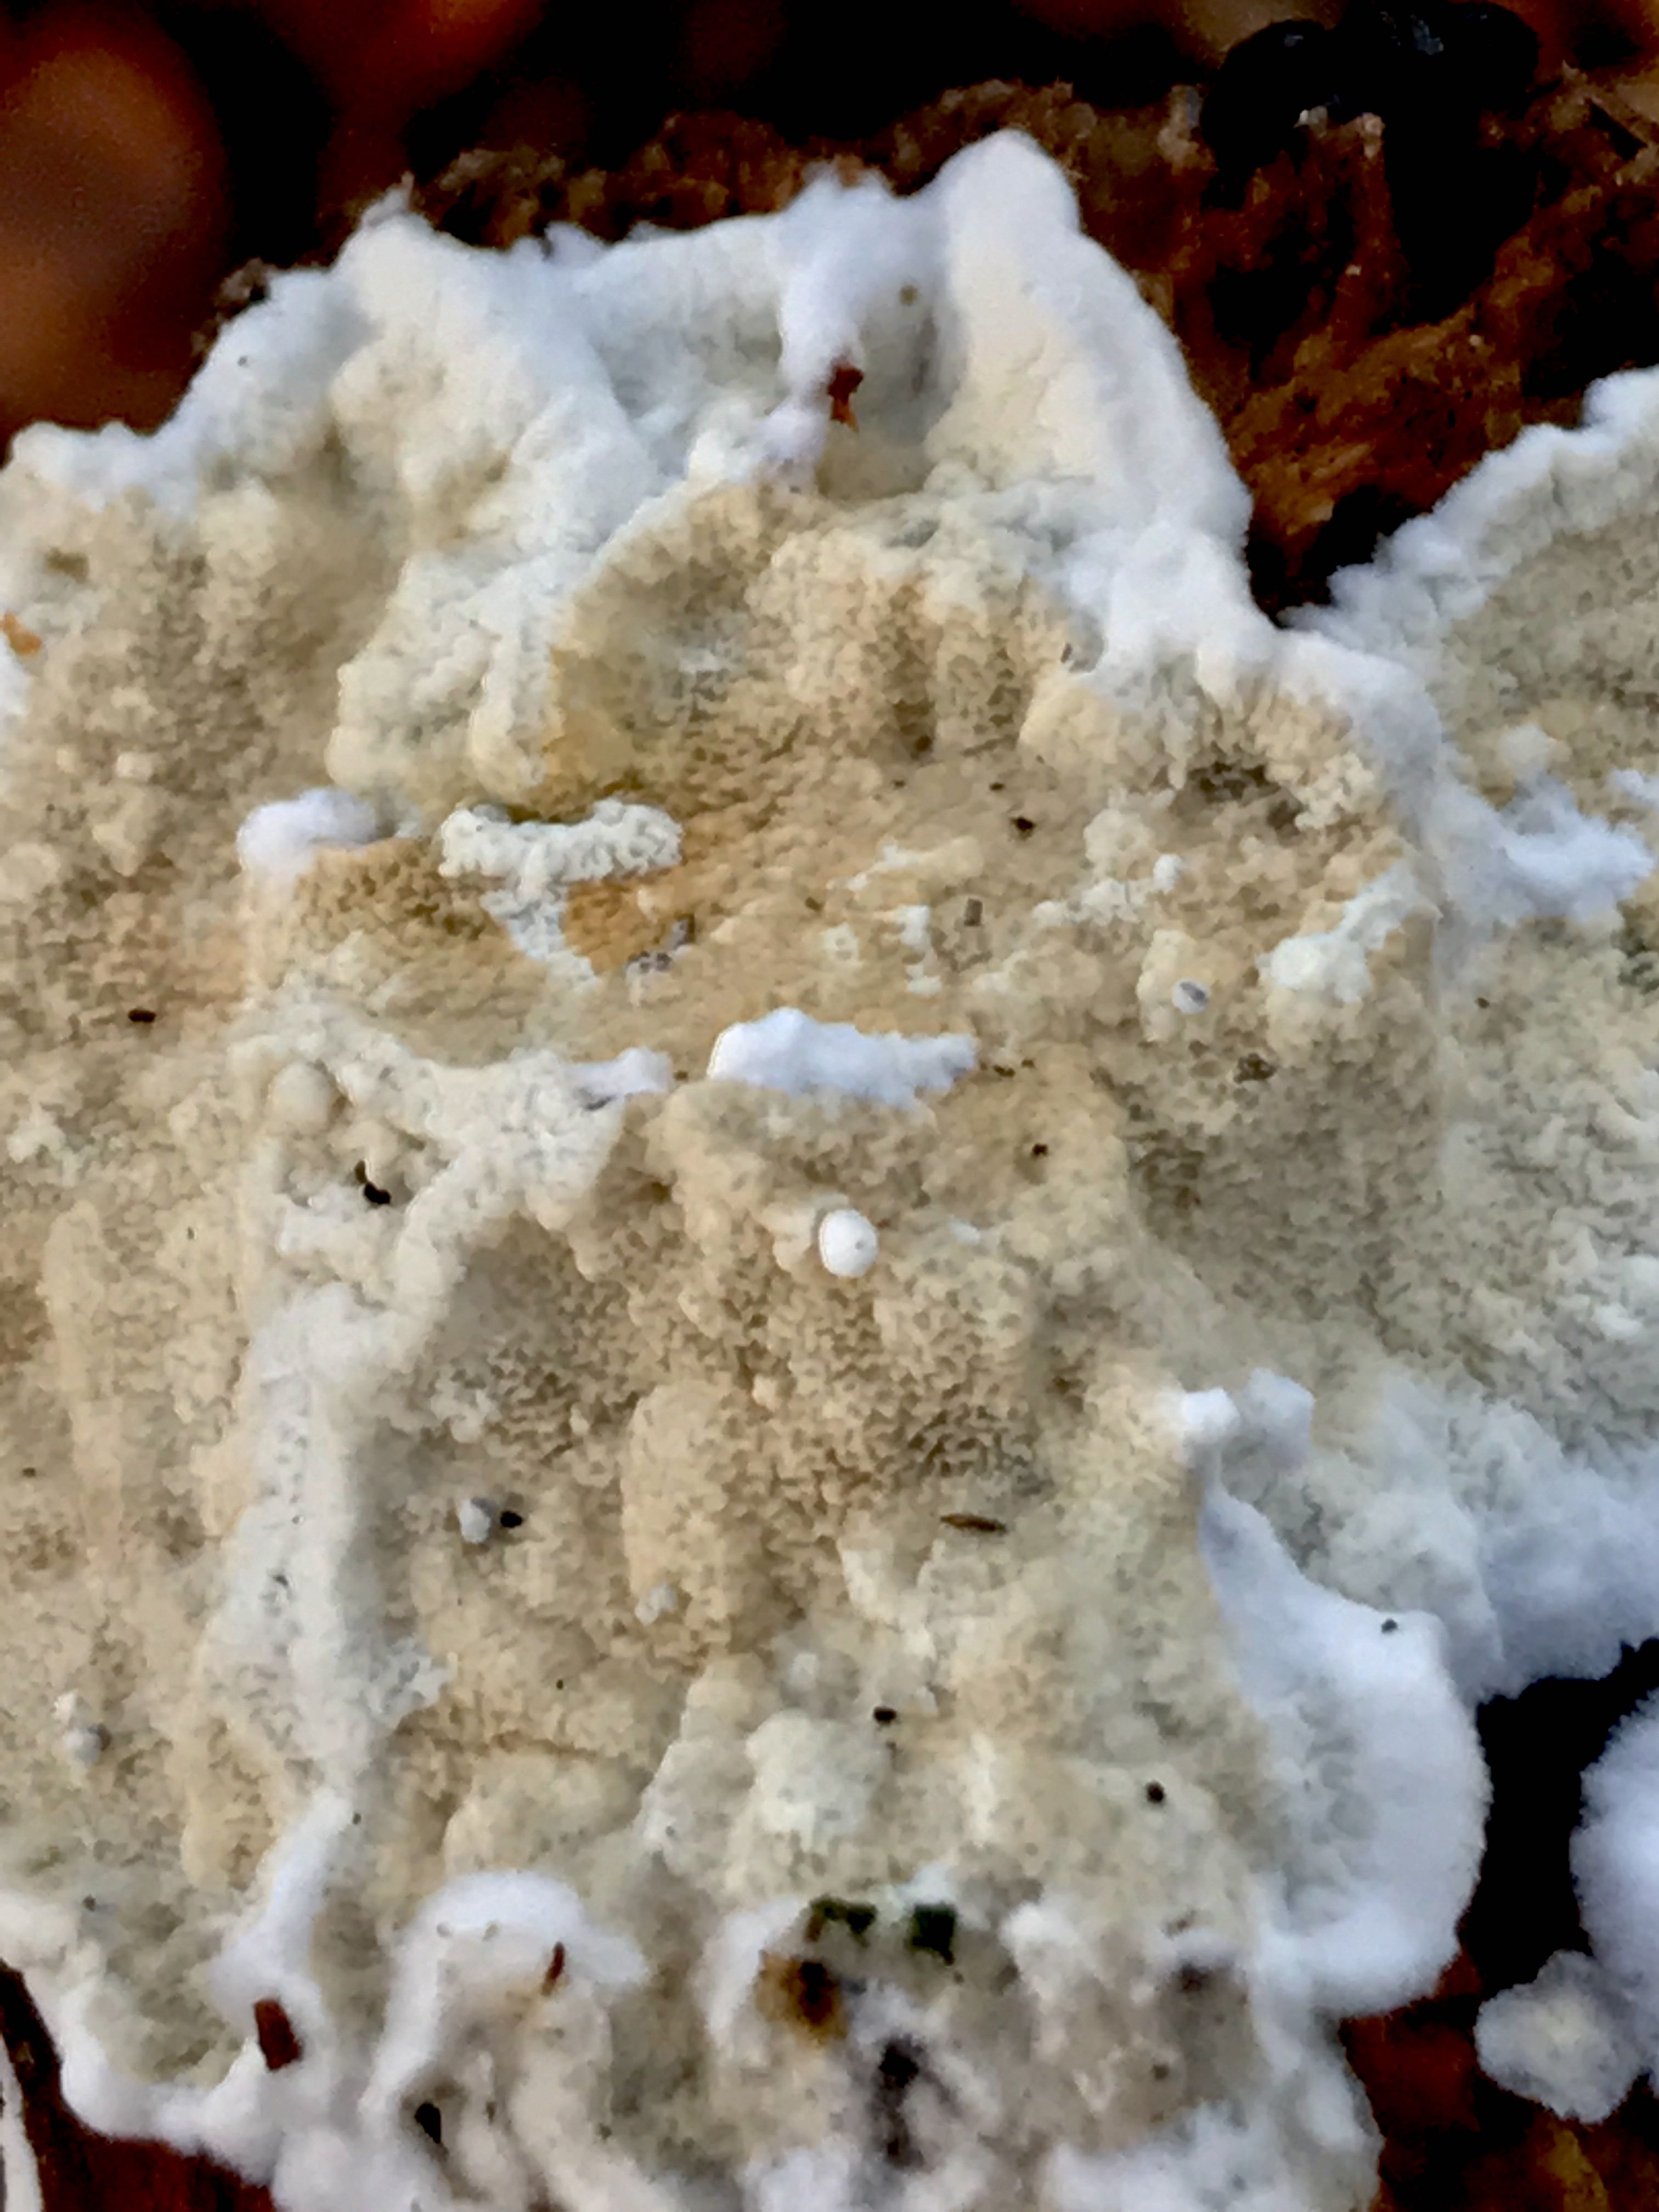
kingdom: Fungi
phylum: Basidiomycota
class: Agaricomycetes
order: Corticiales
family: Corticiaceae
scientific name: Corticiaceae
